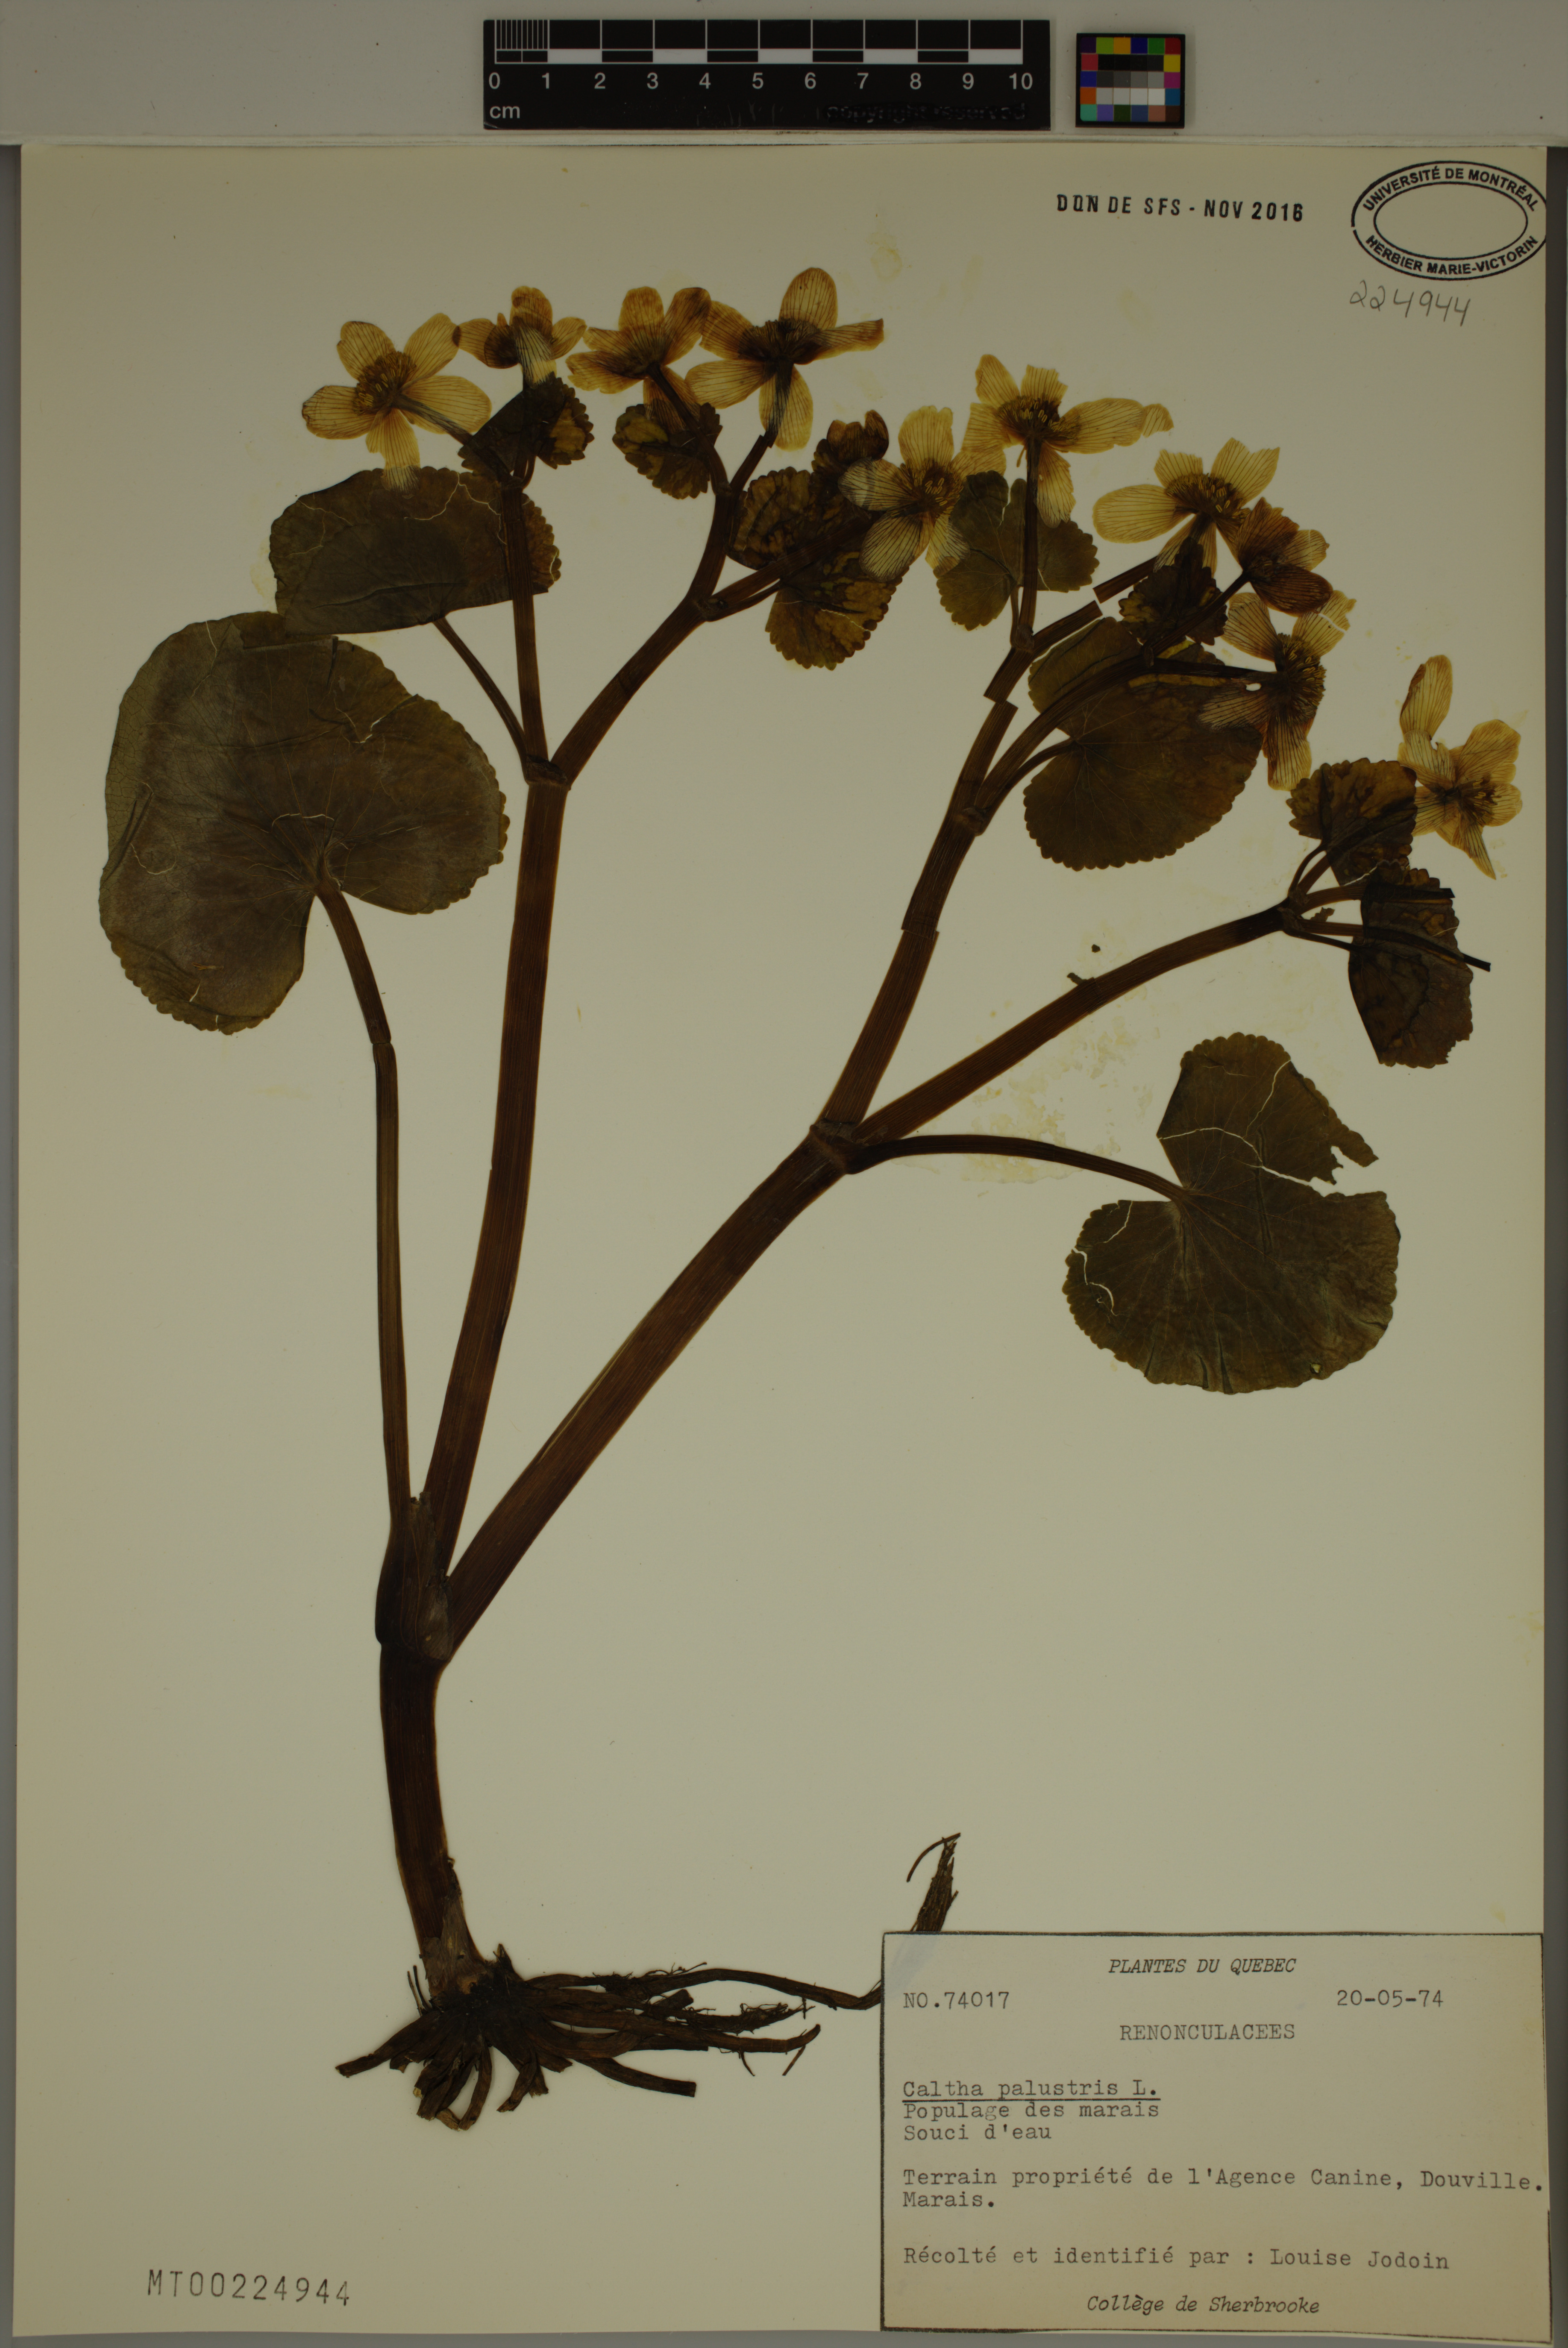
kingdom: Plantae
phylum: Tracheophyta
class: Magnoliopsida
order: Ranunculales
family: Ranunculaceae
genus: Caltha
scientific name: Caltha palustris
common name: Marsh marigold
